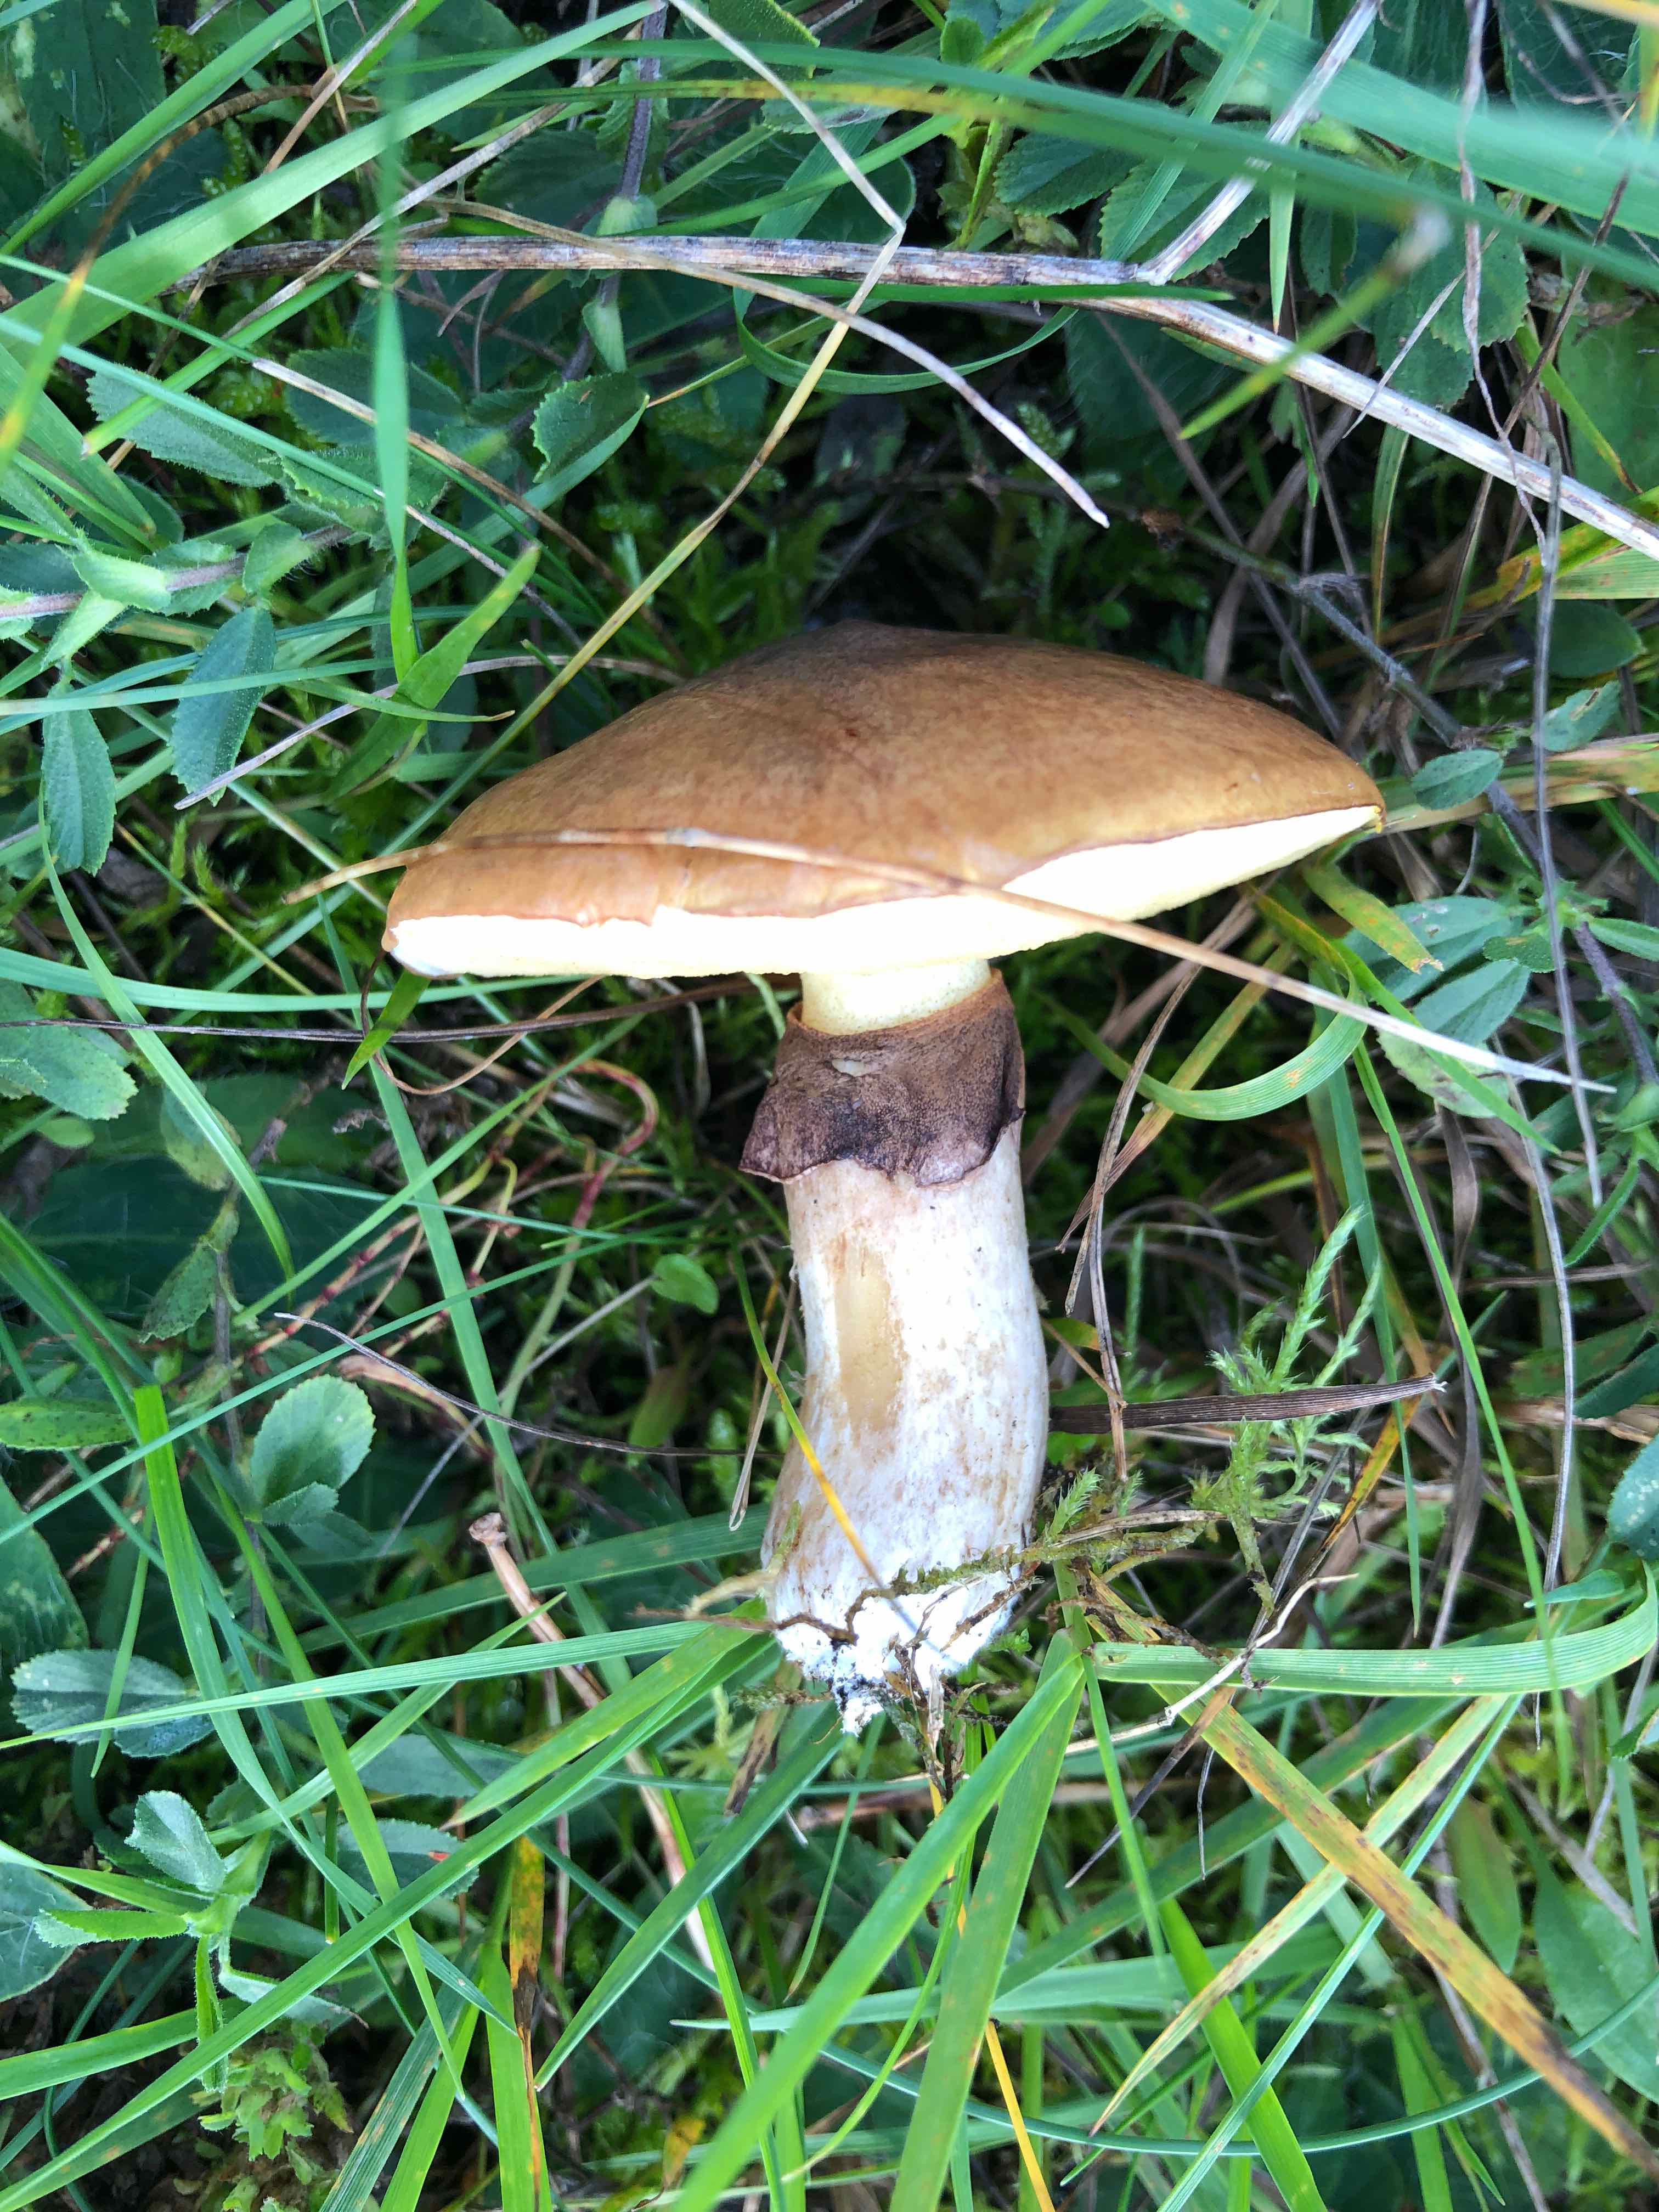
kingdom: Fungi
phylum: Basidiomycota
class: Agaricomycetes
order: Boletales
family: Suillaceae
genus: Suillus
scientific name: Suillus luteus
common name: brungul slimrørhat
